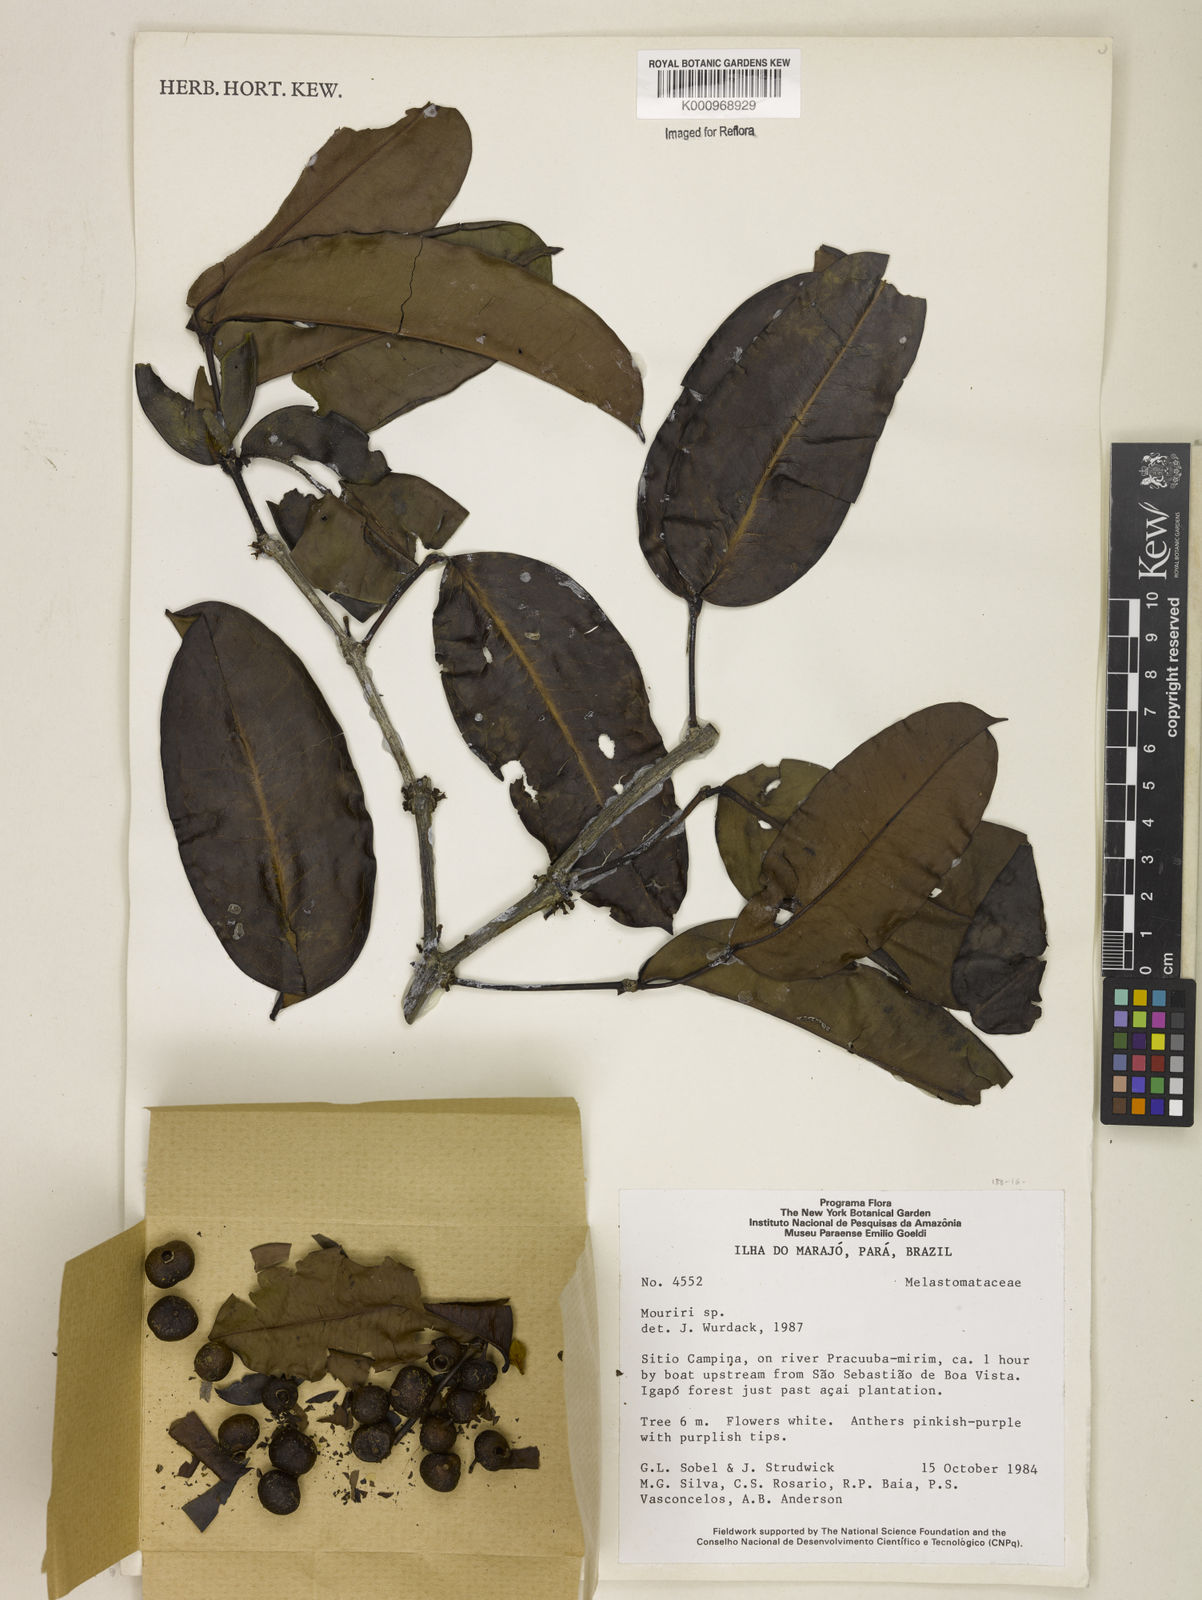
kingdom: Plantae
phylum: Tracheophyta
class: Magnoliopsida
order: Myrtales
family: Melastomataceae
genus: Mouriri
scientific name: Mouriri
